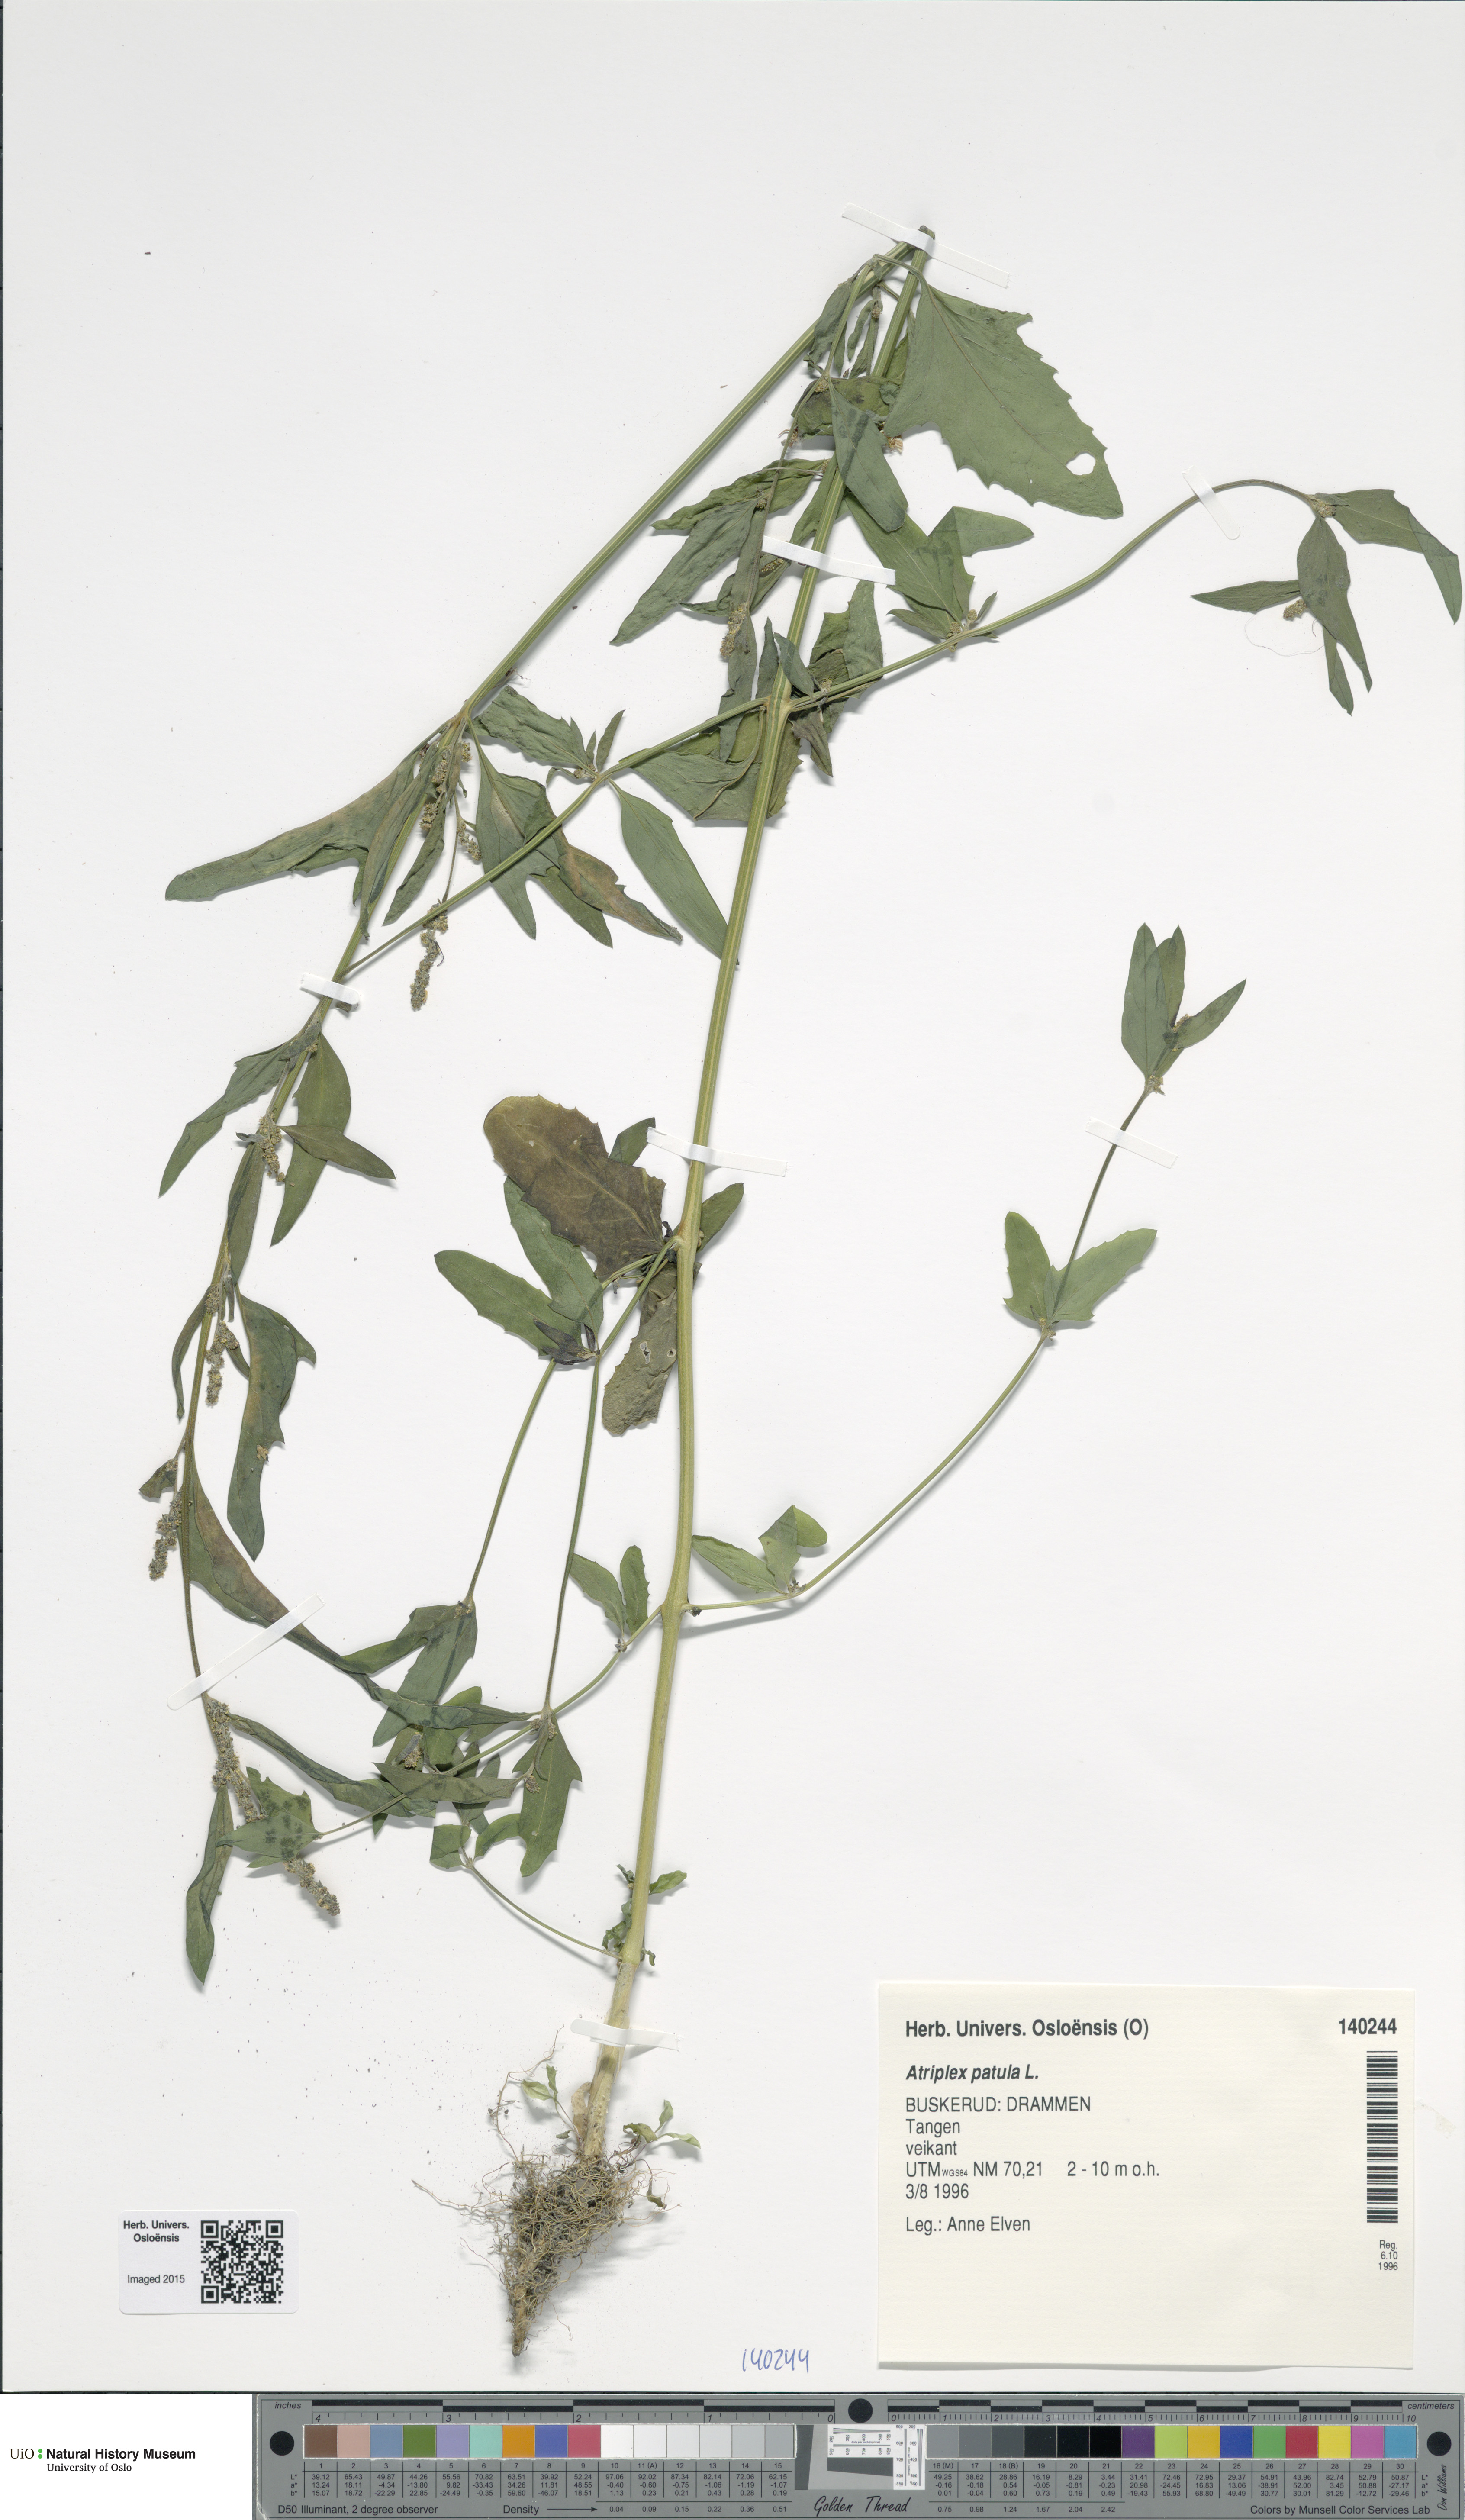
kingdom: Plantae
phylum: Tracheophyta
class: Magnoliopsida
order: Caryophyllales
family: Amaranthaceae
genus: Atriplex
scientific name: Atriplex patula
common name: Common orache
